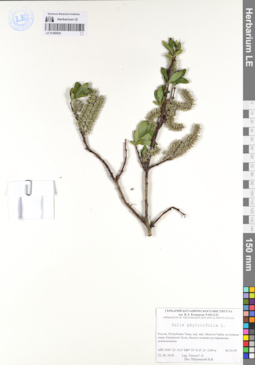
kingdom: Plantae
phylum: Tracheophyta
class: Magnoliopsida
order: Malpighiales
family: Salicaceae
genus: Salix
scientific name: Salix phylicifolia
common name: Tea-leaved willow
